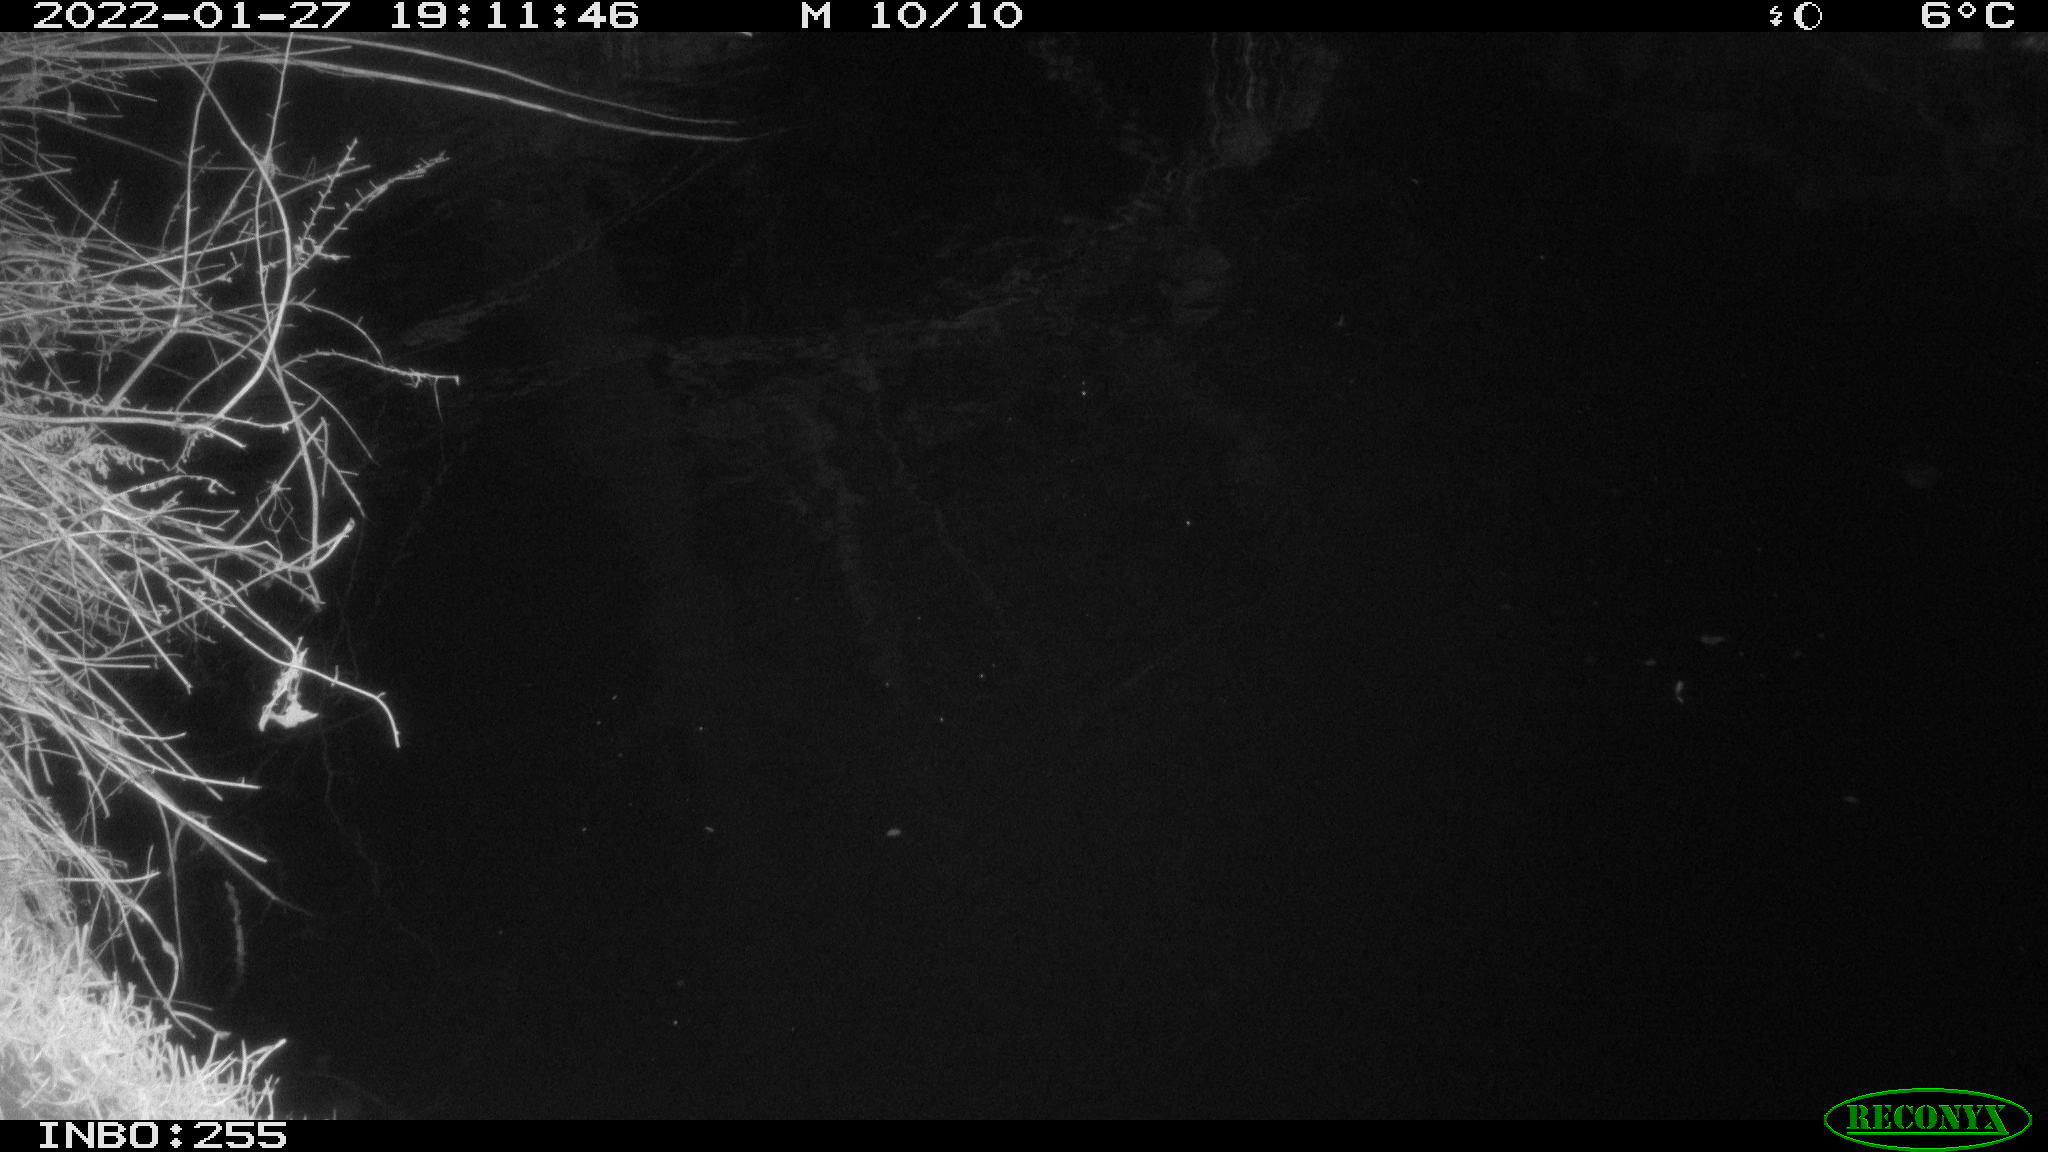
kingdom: Animalia
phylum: Chordata
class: Mammalia
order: Rodentia
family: Muridae
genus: Rattus
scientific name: Rattus norvegicus
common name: Brown rat
